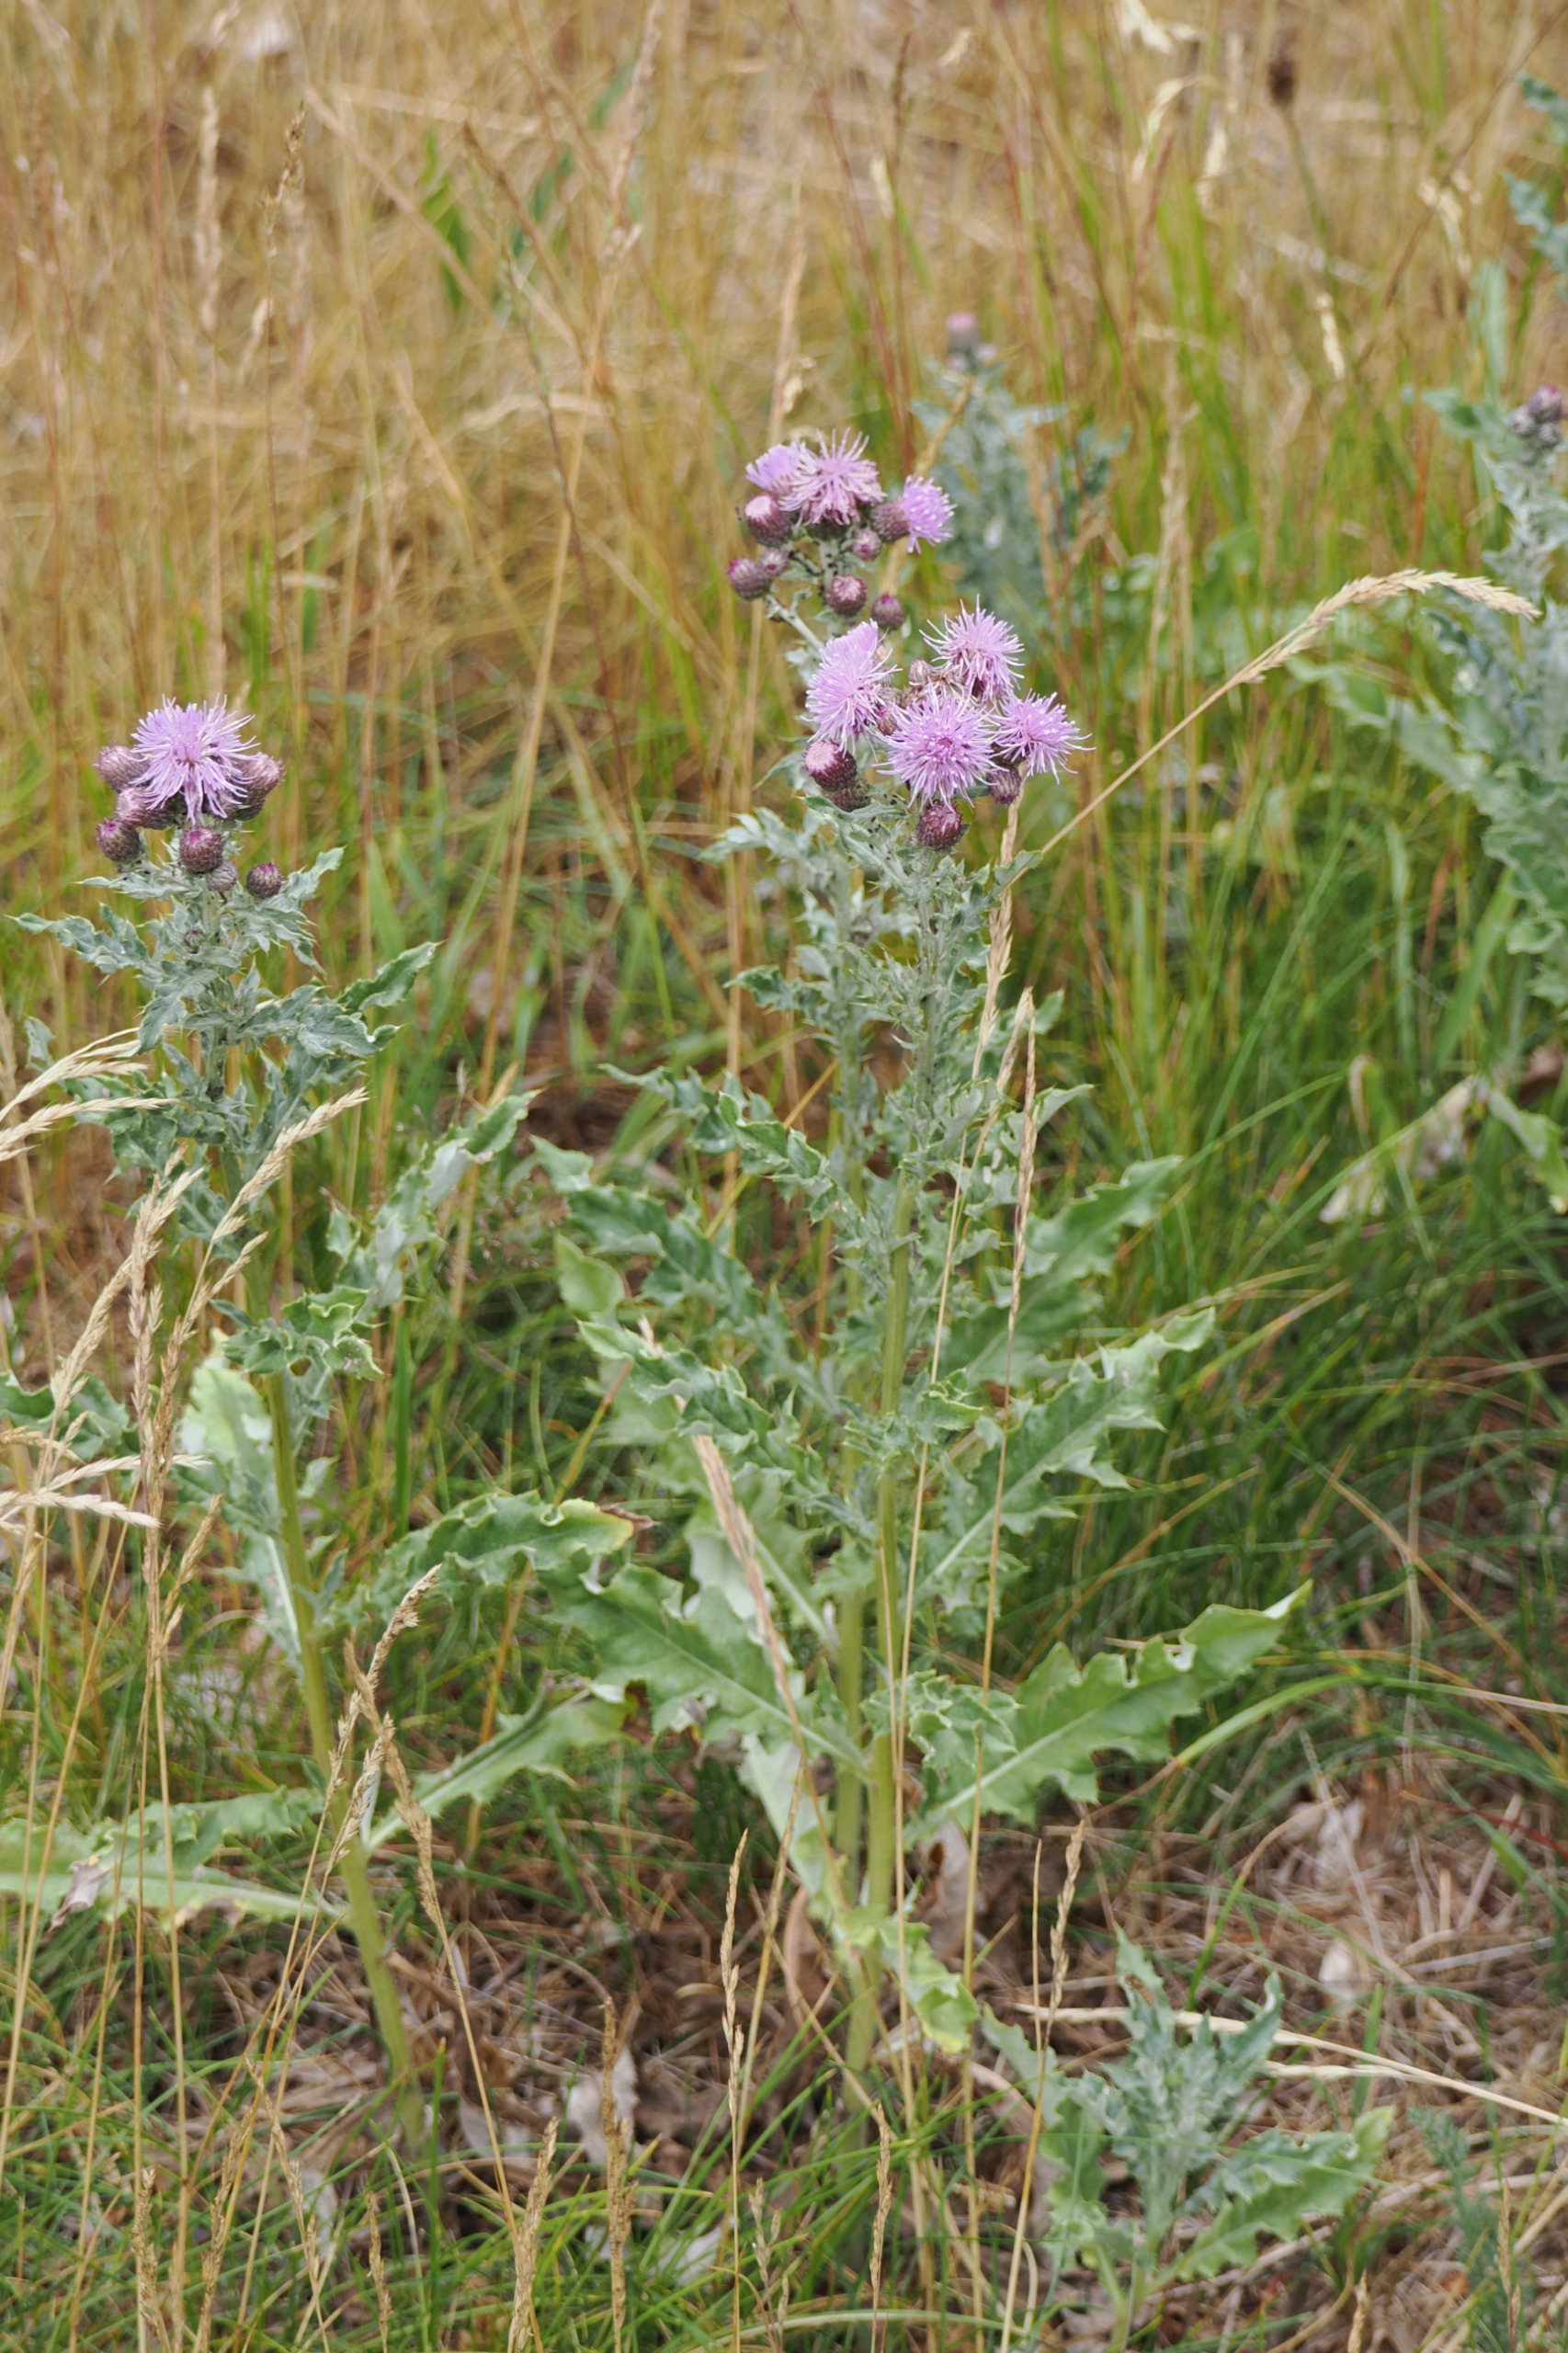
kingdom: Plantae
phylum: Tracheophyta
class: Magnoliopsida
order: Asterales
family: Asteraceae
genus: Cirsium
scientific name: Cirsium arvense
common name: Ager-tidsel
